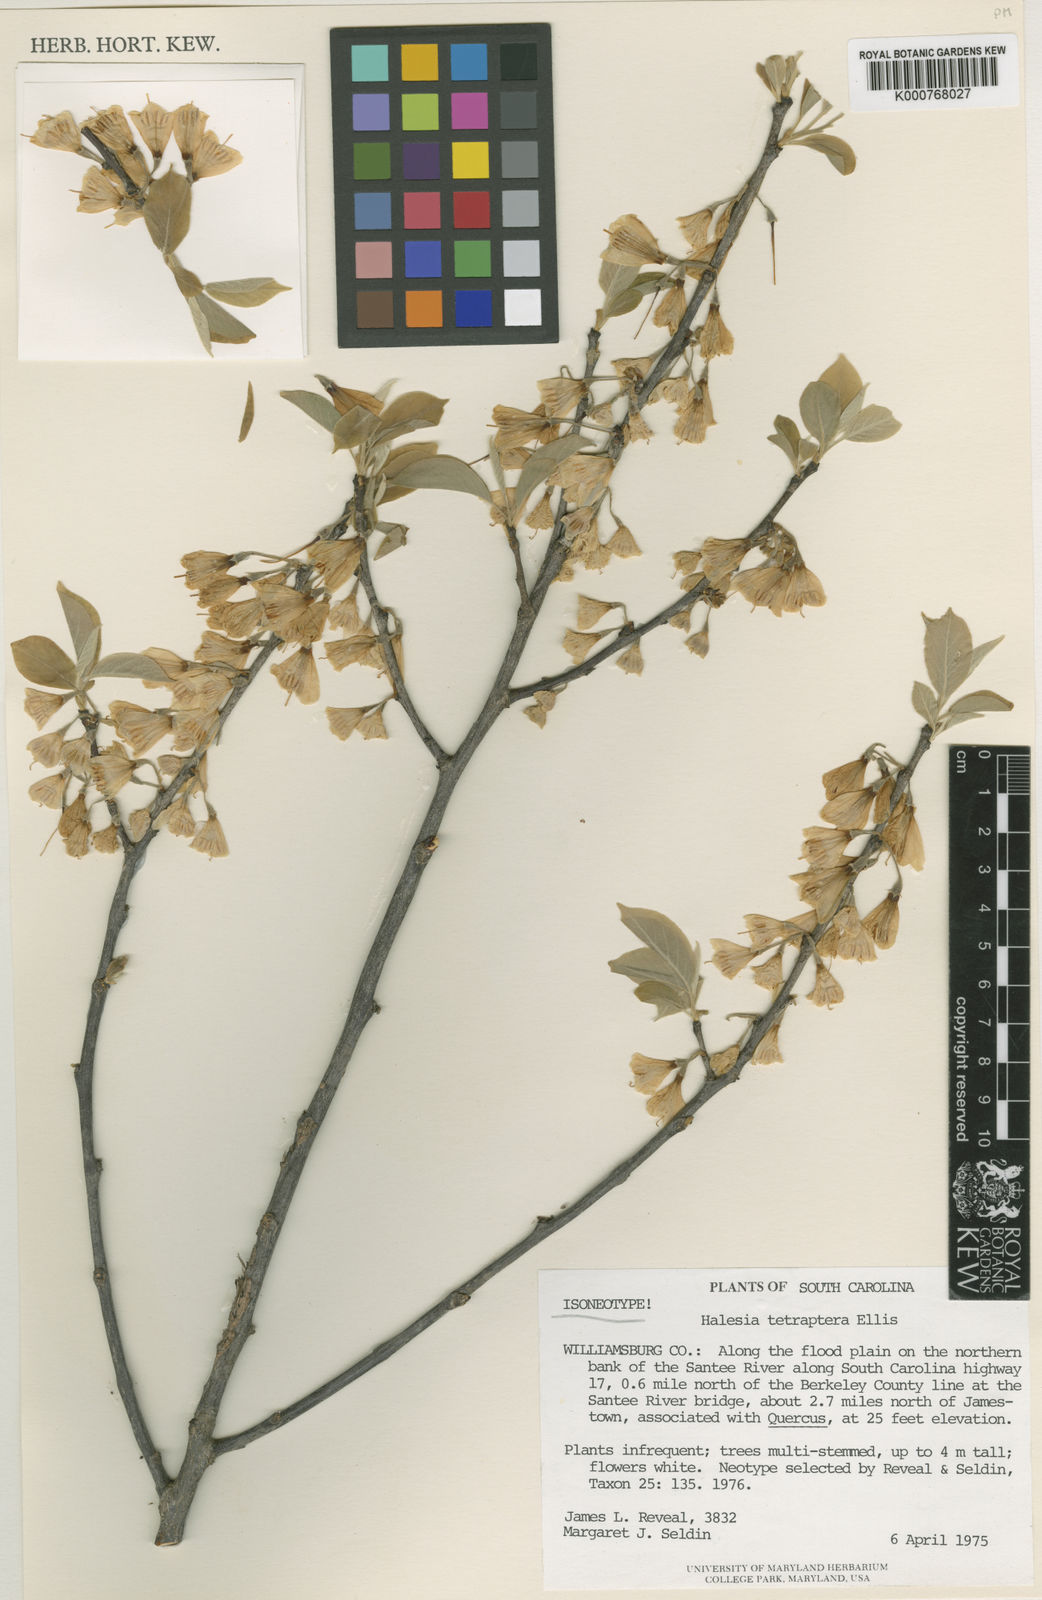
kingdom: Plantae
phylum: Tracheophyta
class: Magnoliopsida
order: Ericales
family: Styracaceae
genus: Halesia
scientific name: Halesia
